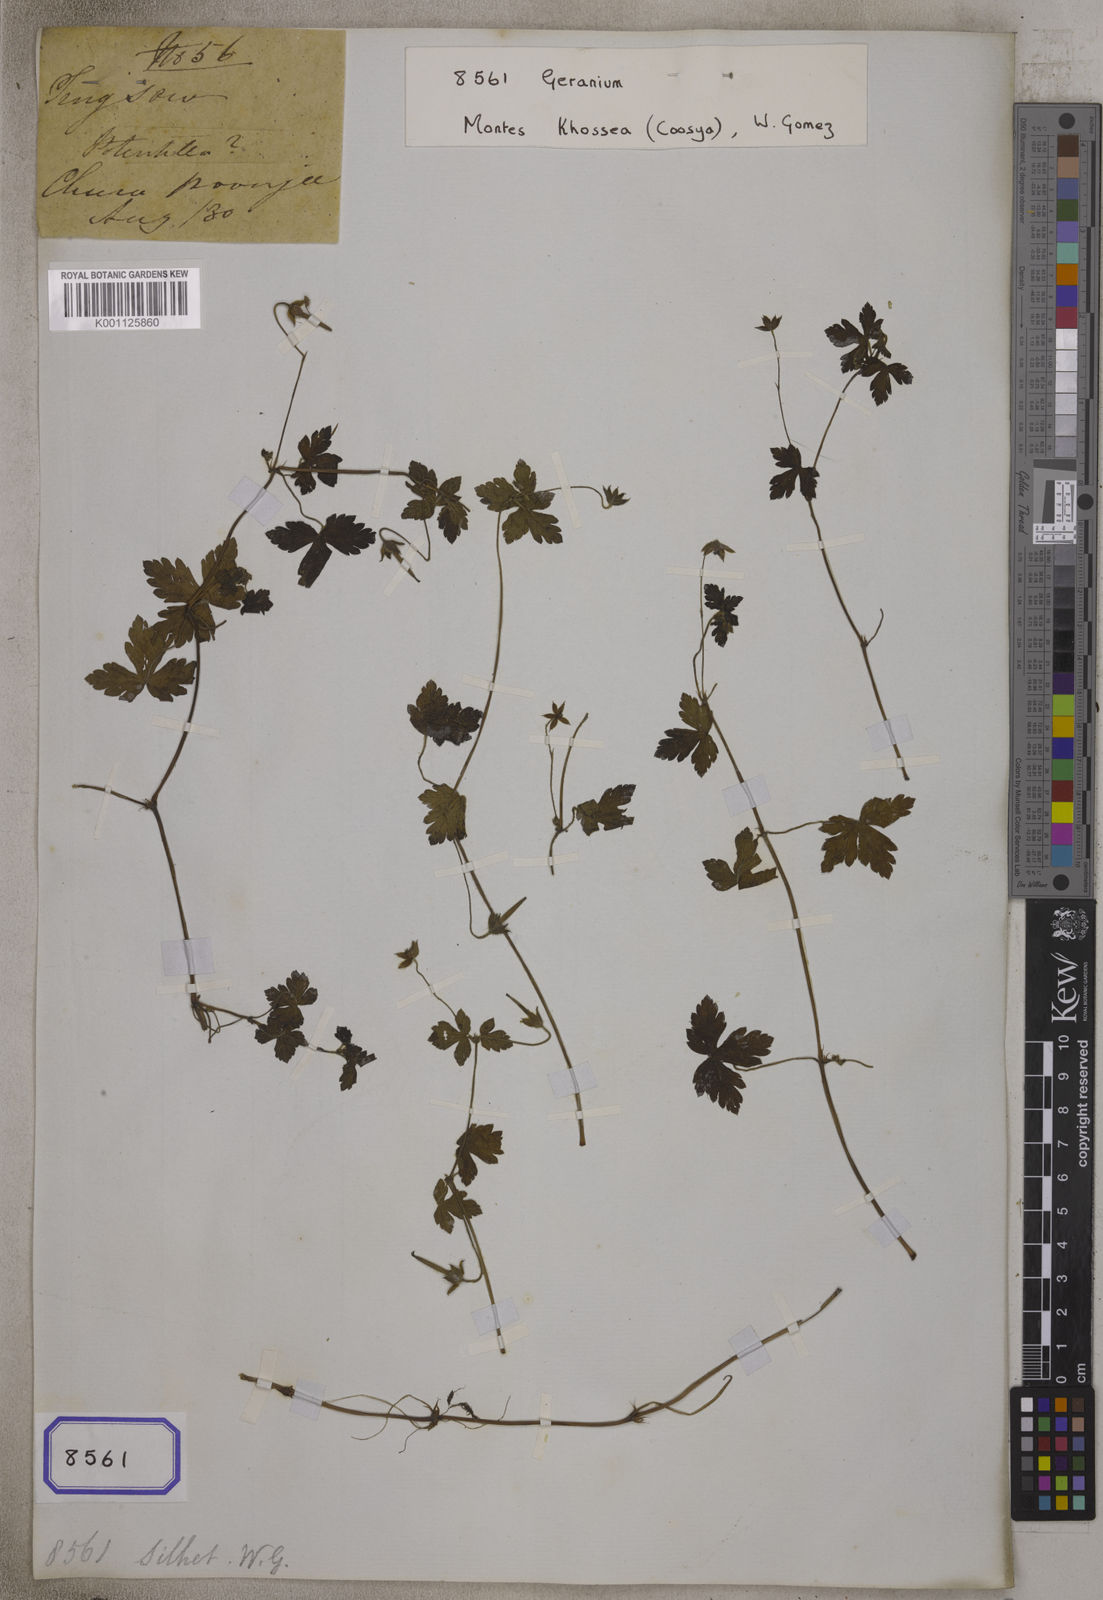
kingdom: Plantae
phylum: Tracheophyta
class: Magnoliopsida
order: Geraniales
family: Geraniaceae
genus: Geranium
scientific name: Geranium
